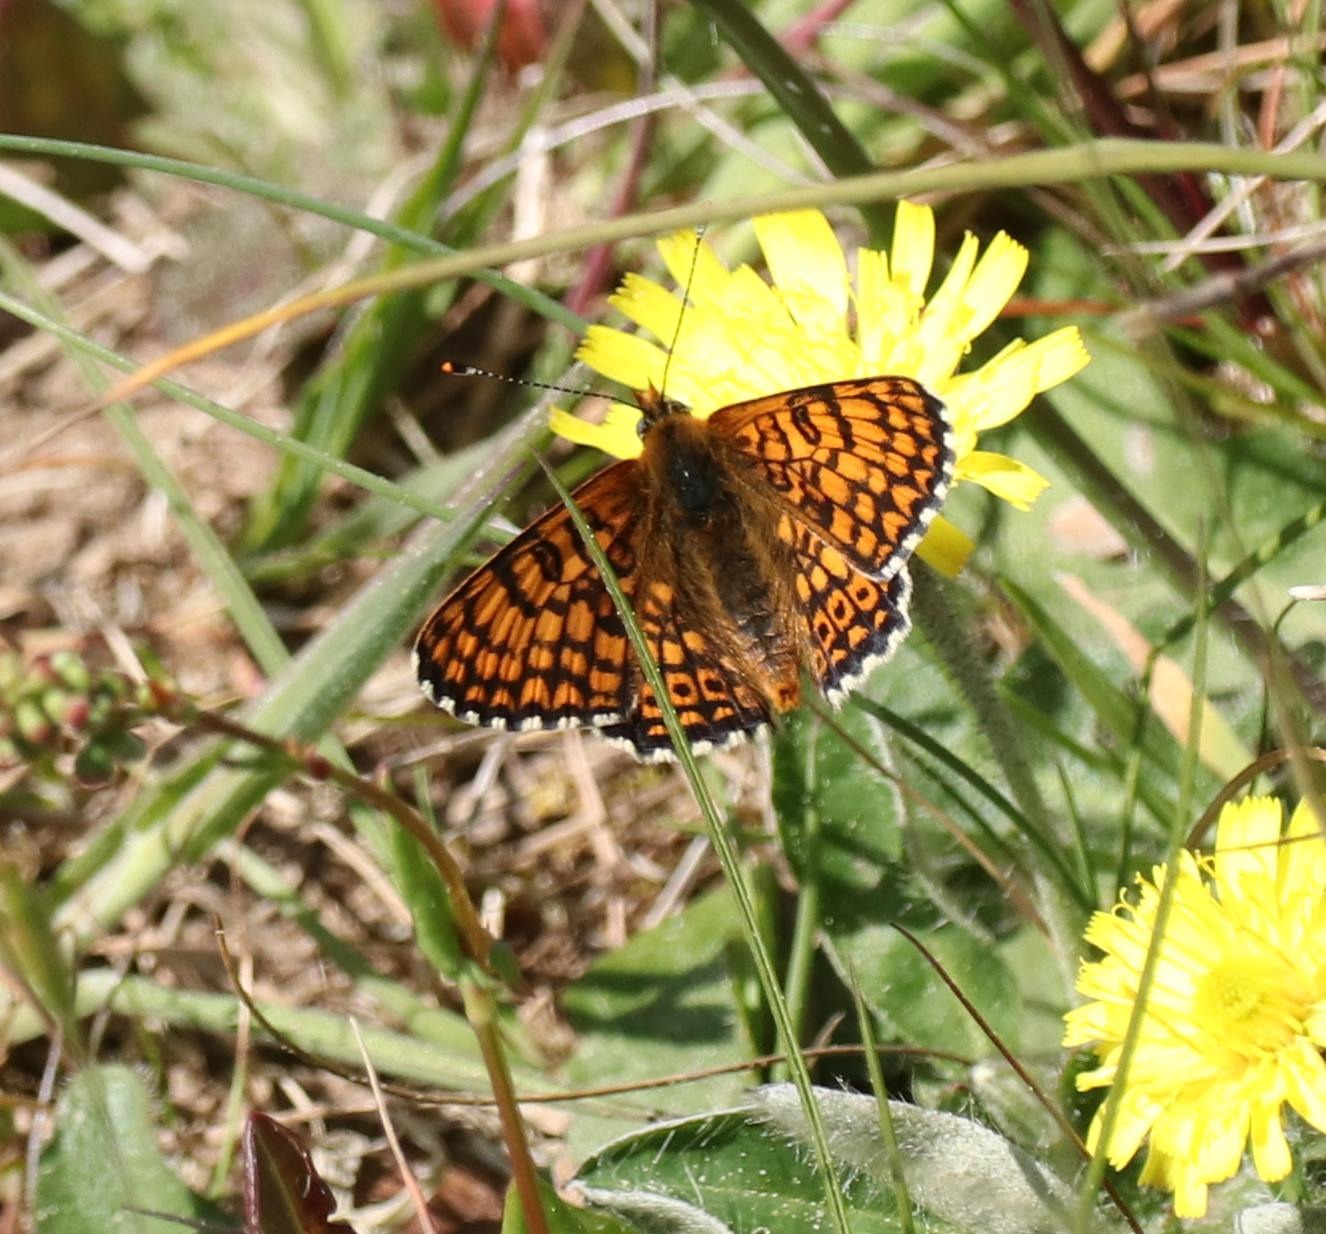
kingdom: Animalia
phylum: Arthropoda
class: Insecta
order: Lepidoptera
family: Nymphalidae
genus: Melitaea
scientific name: Melitaea cinxia
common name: Okkergul pletvinge
